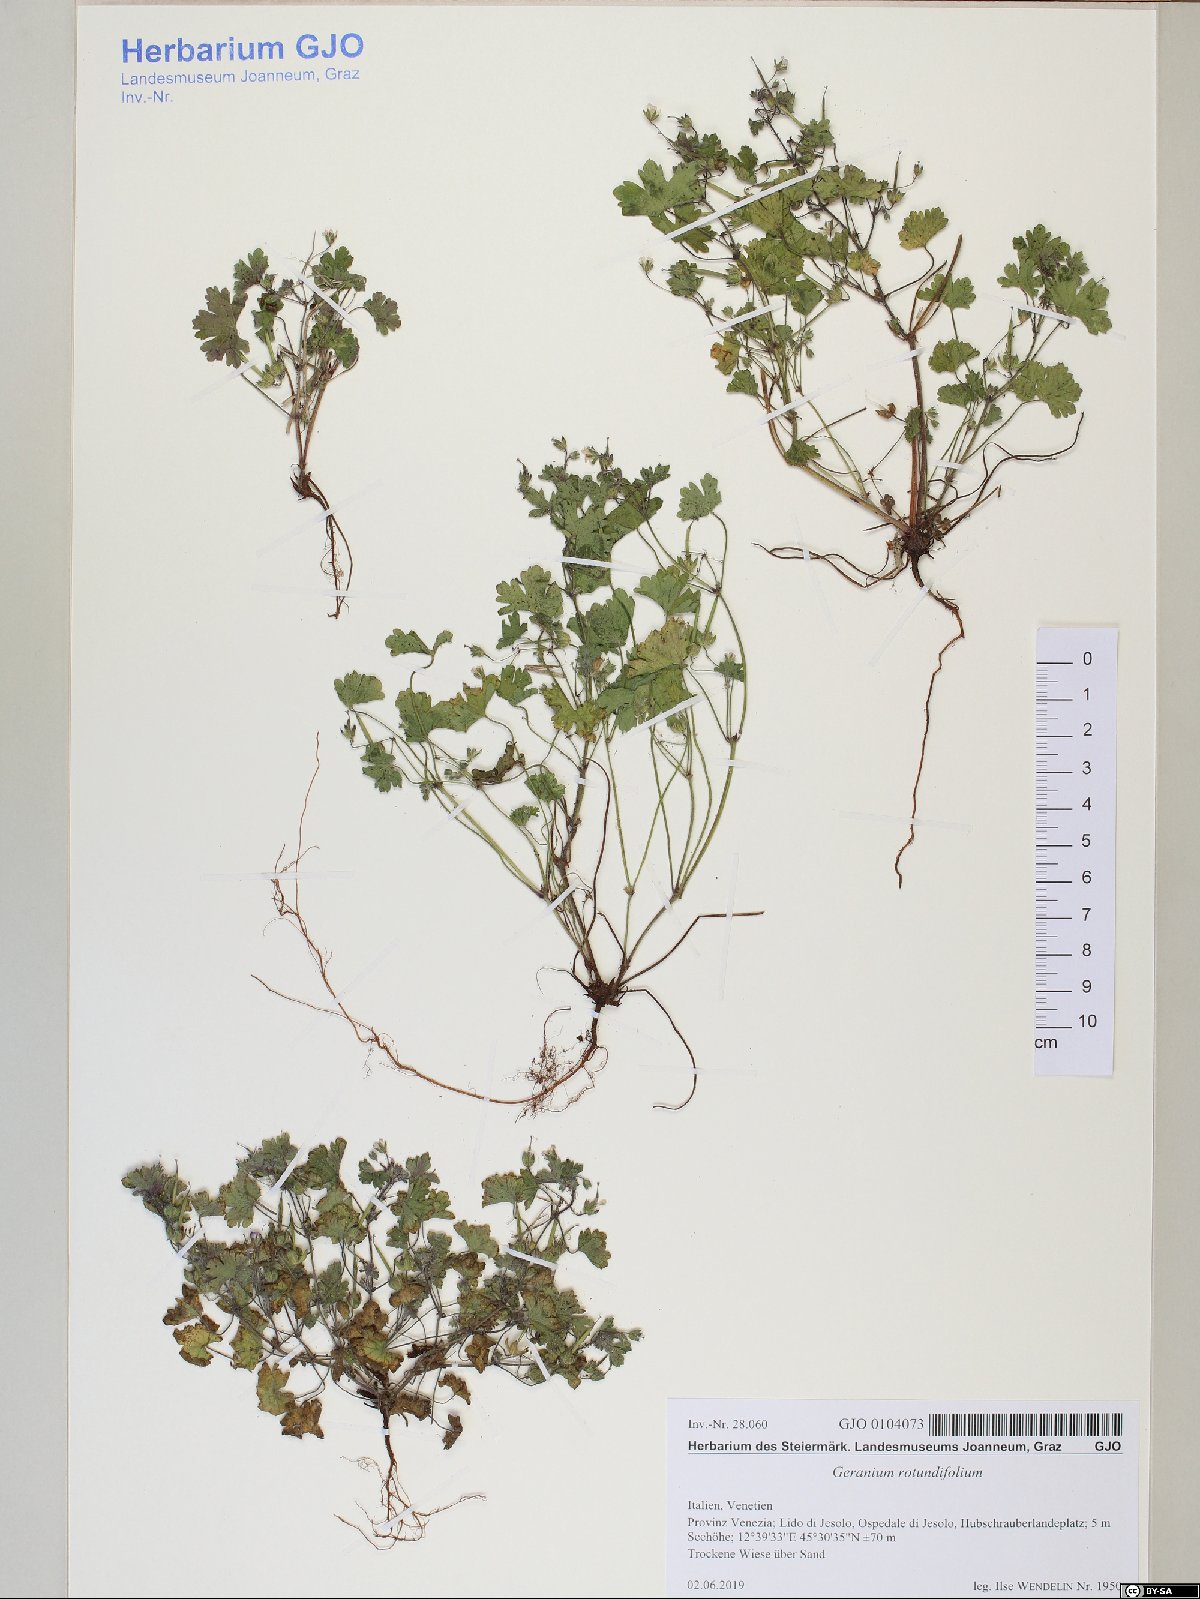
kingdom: Plantae
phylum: Tracheophyta
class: Magnoliopsida
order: Geraniales
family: Geraniaceae
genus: Geranium
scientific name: Geranium rotundifolium
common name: Round-leaved crane's-bill
